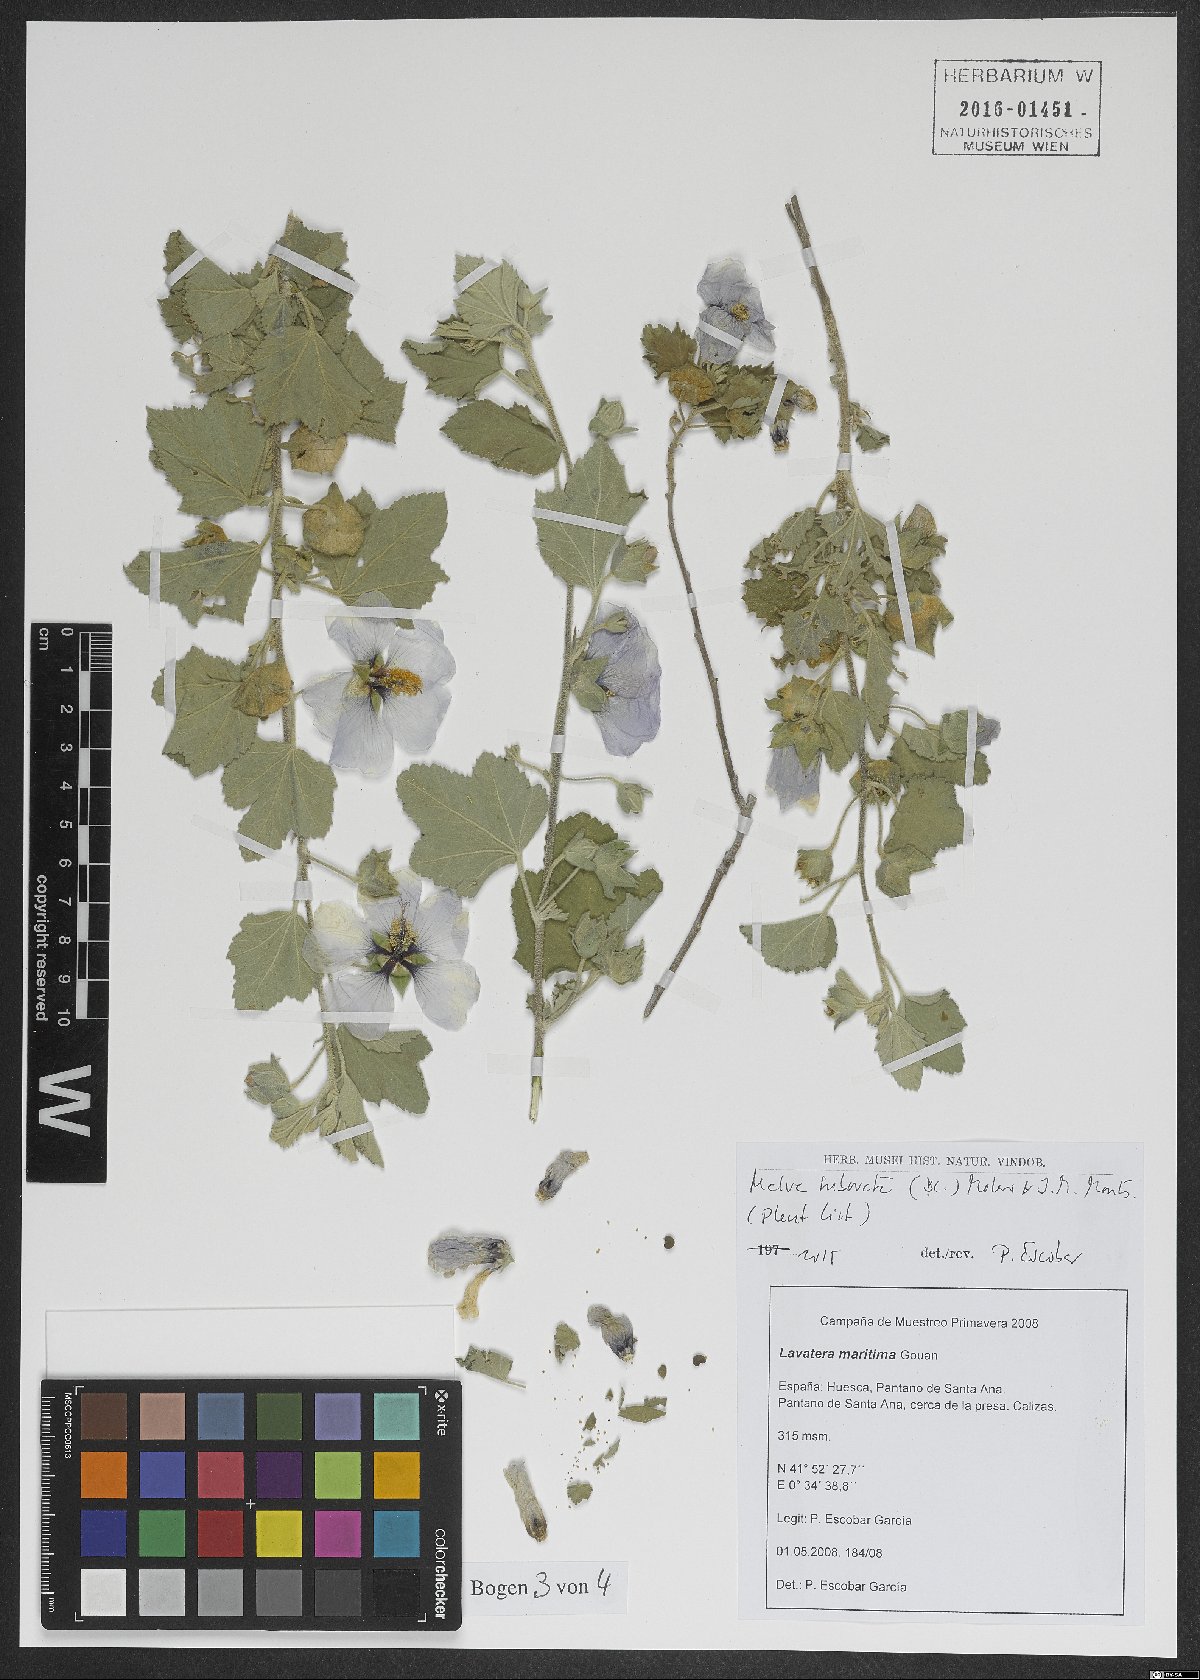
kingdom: Plantae
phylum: Tracheophyta
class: Magnoliopsida
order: Malvales
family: Malvaceae
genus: Malva
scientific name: Malva subovata
